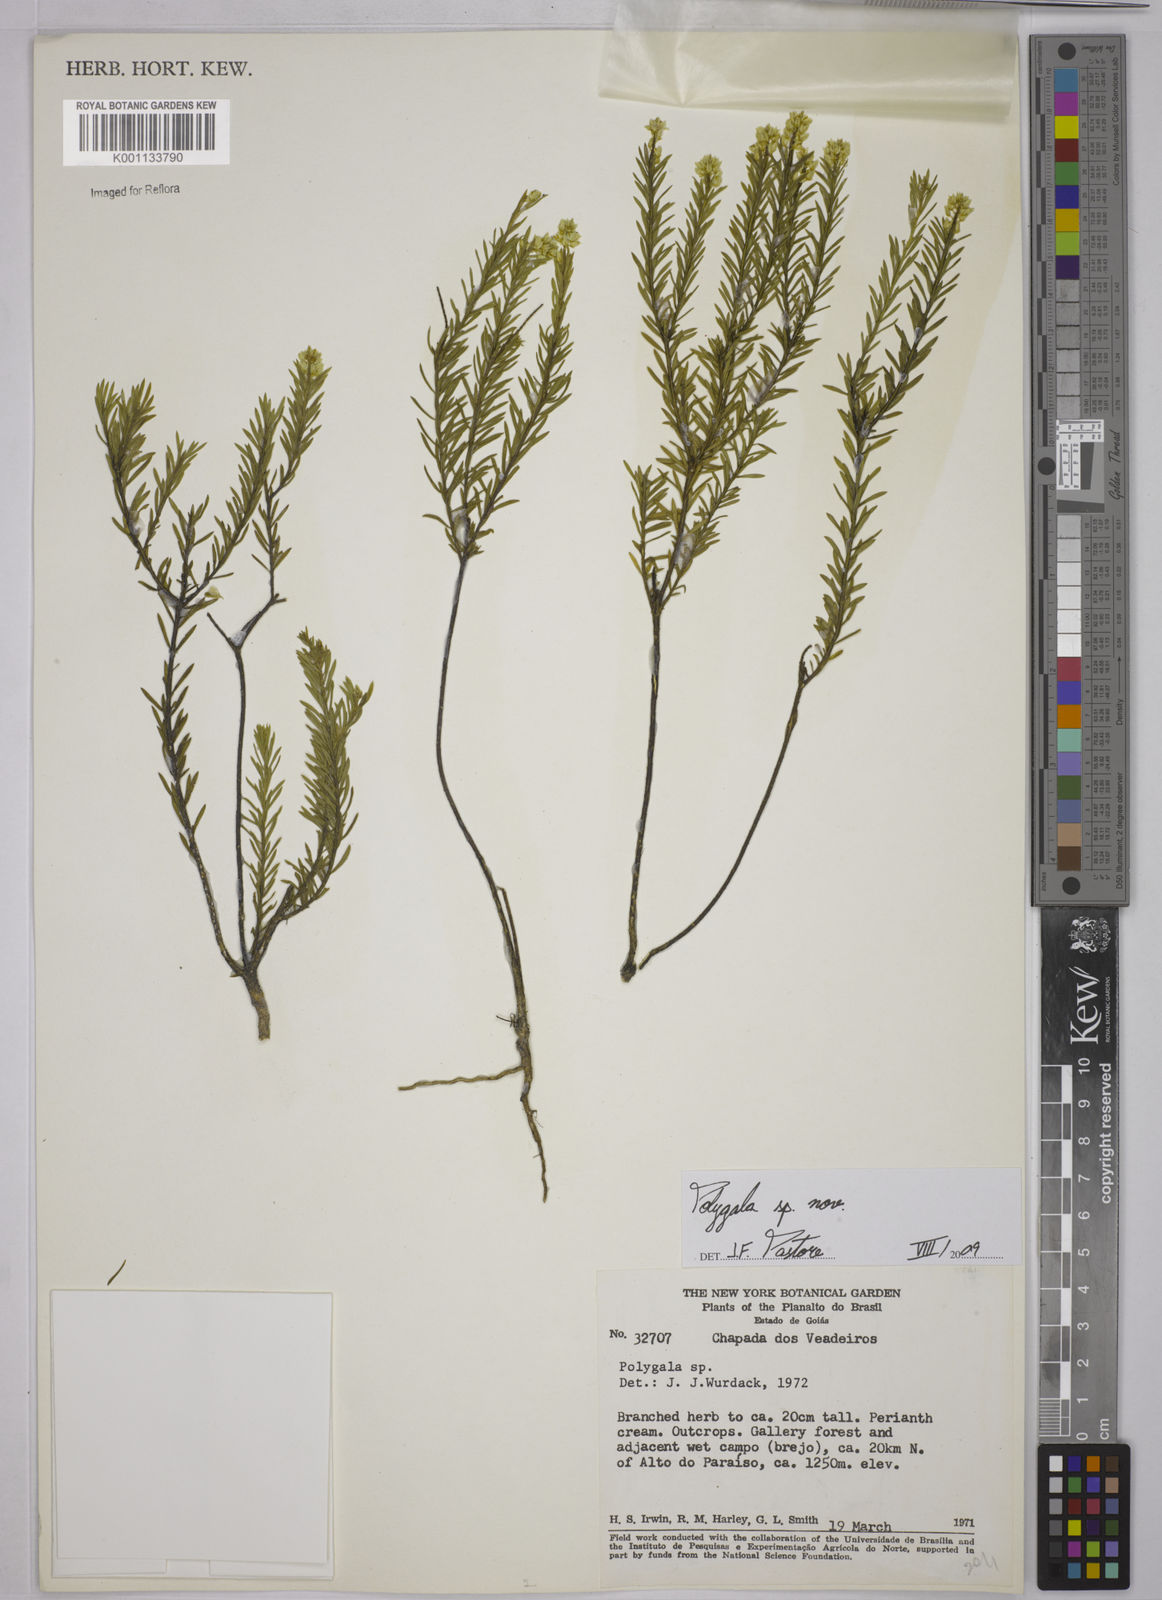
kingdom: Plantae
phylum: Tracheophyta
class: Magnoliopsida
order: Fabales
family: Polygalaceae
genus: Polygala
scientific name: Polygala judithea
